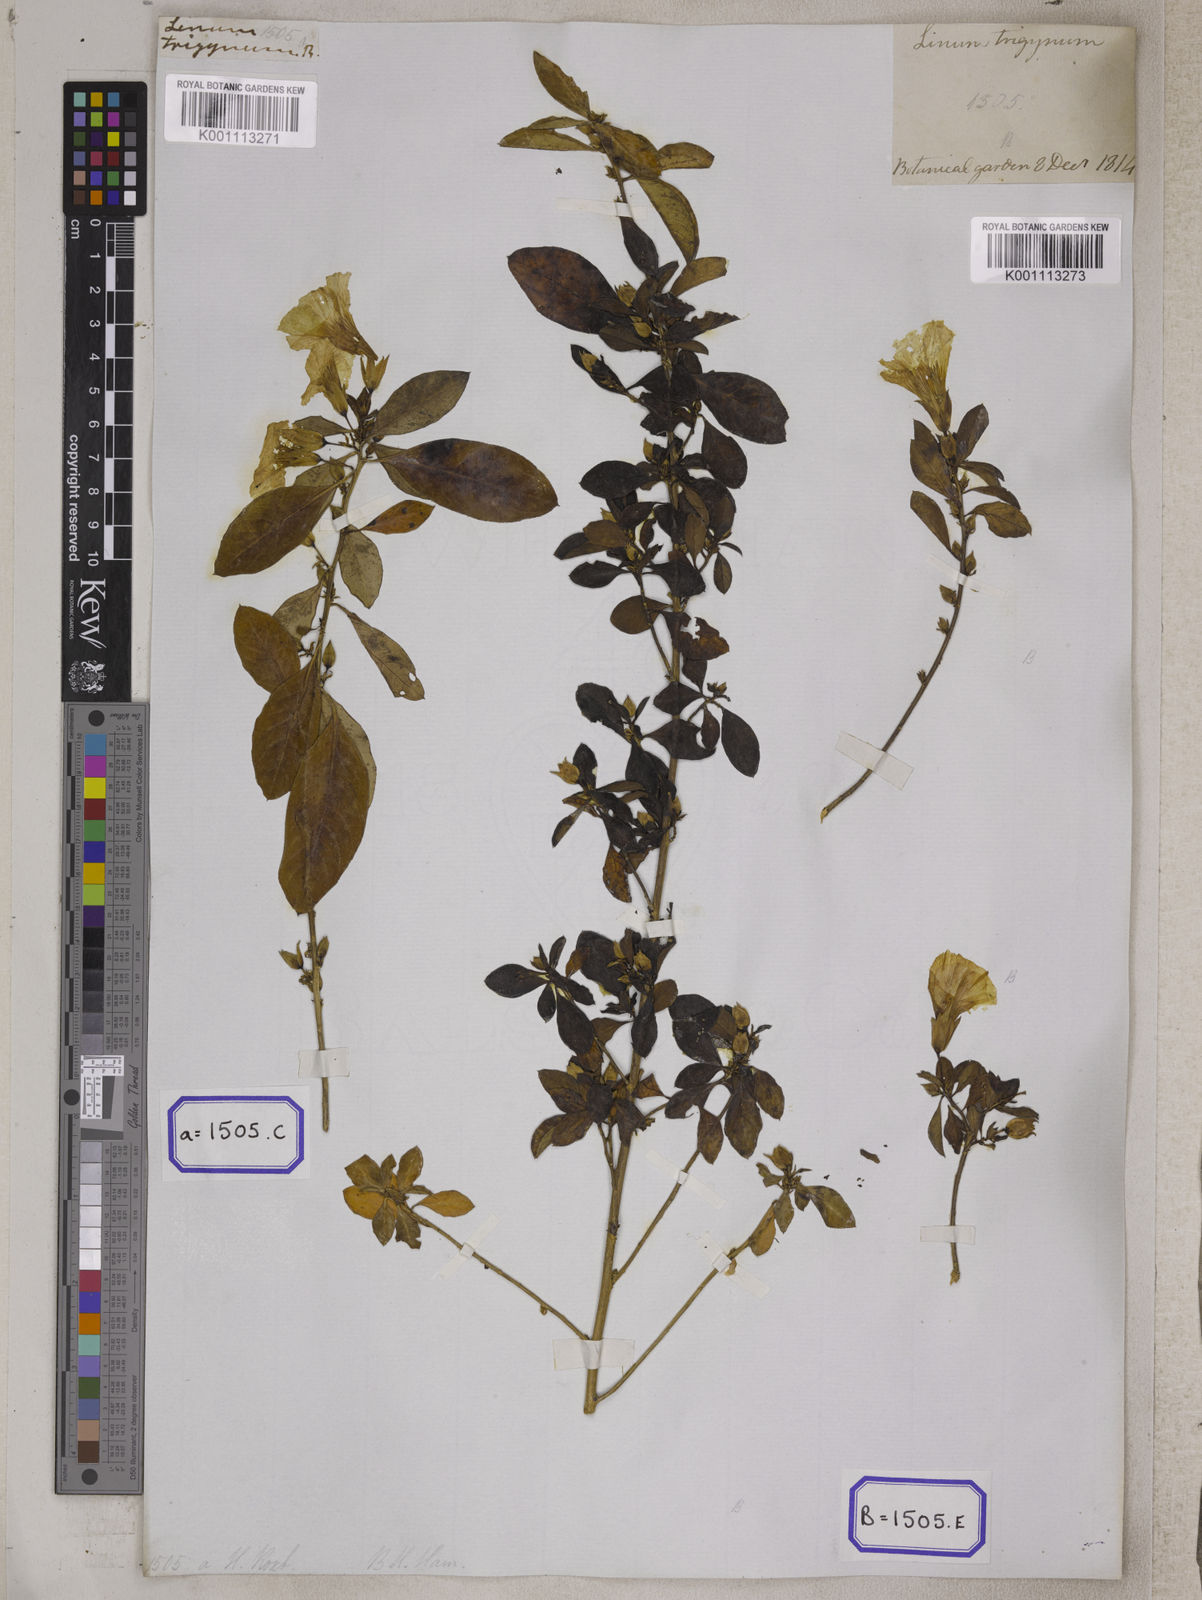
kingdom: Plantae
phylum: Tracheophyta
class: Magnoliopsida
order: Malpighiales
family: Linaceae
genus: Linum
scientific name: Linum
